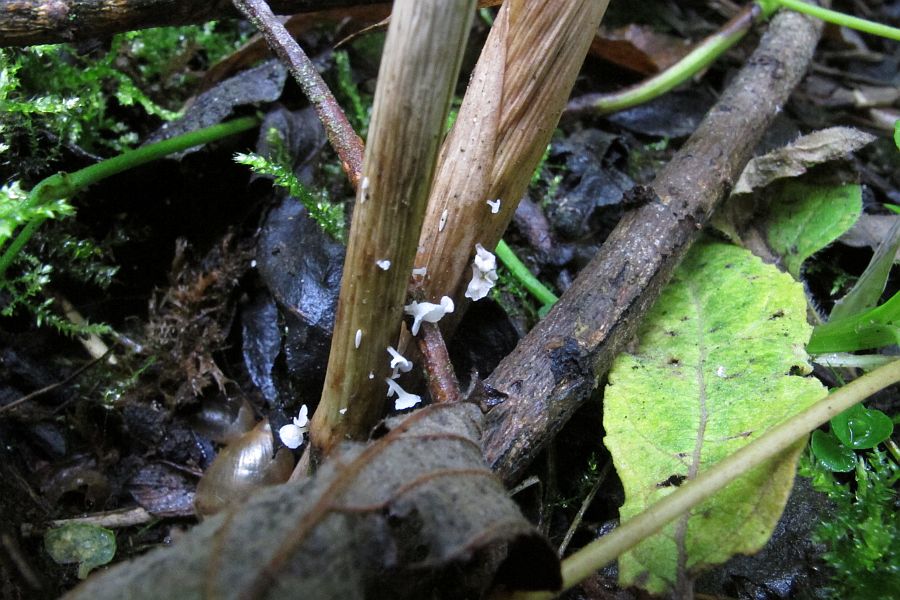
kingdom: Fungi
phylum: Basidiomycota
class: Agaricomycetes
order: Agaricales
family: Marasmiaceae
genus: Calyptella
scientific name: Calyptella gibbosa
